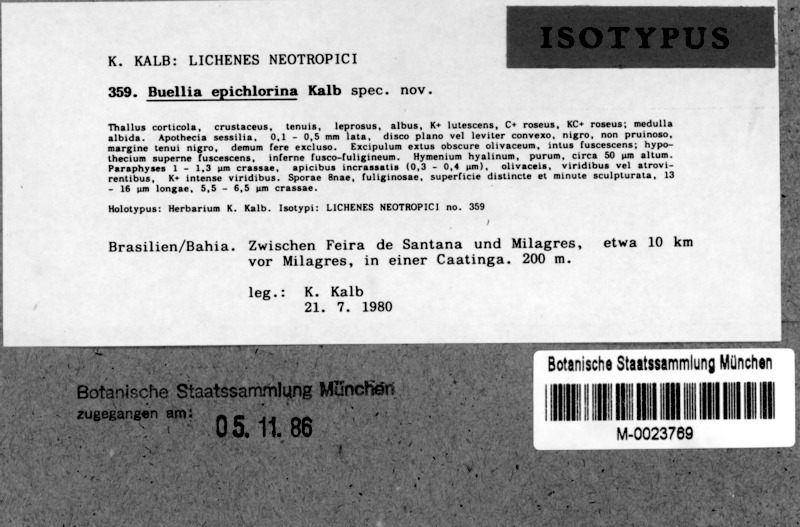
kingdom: Fungi
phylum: Ascomycota
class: Lecanoromycetes
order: Caliciales
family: Caliciaceae
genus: Buellia
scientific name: Buellia epichlorina
